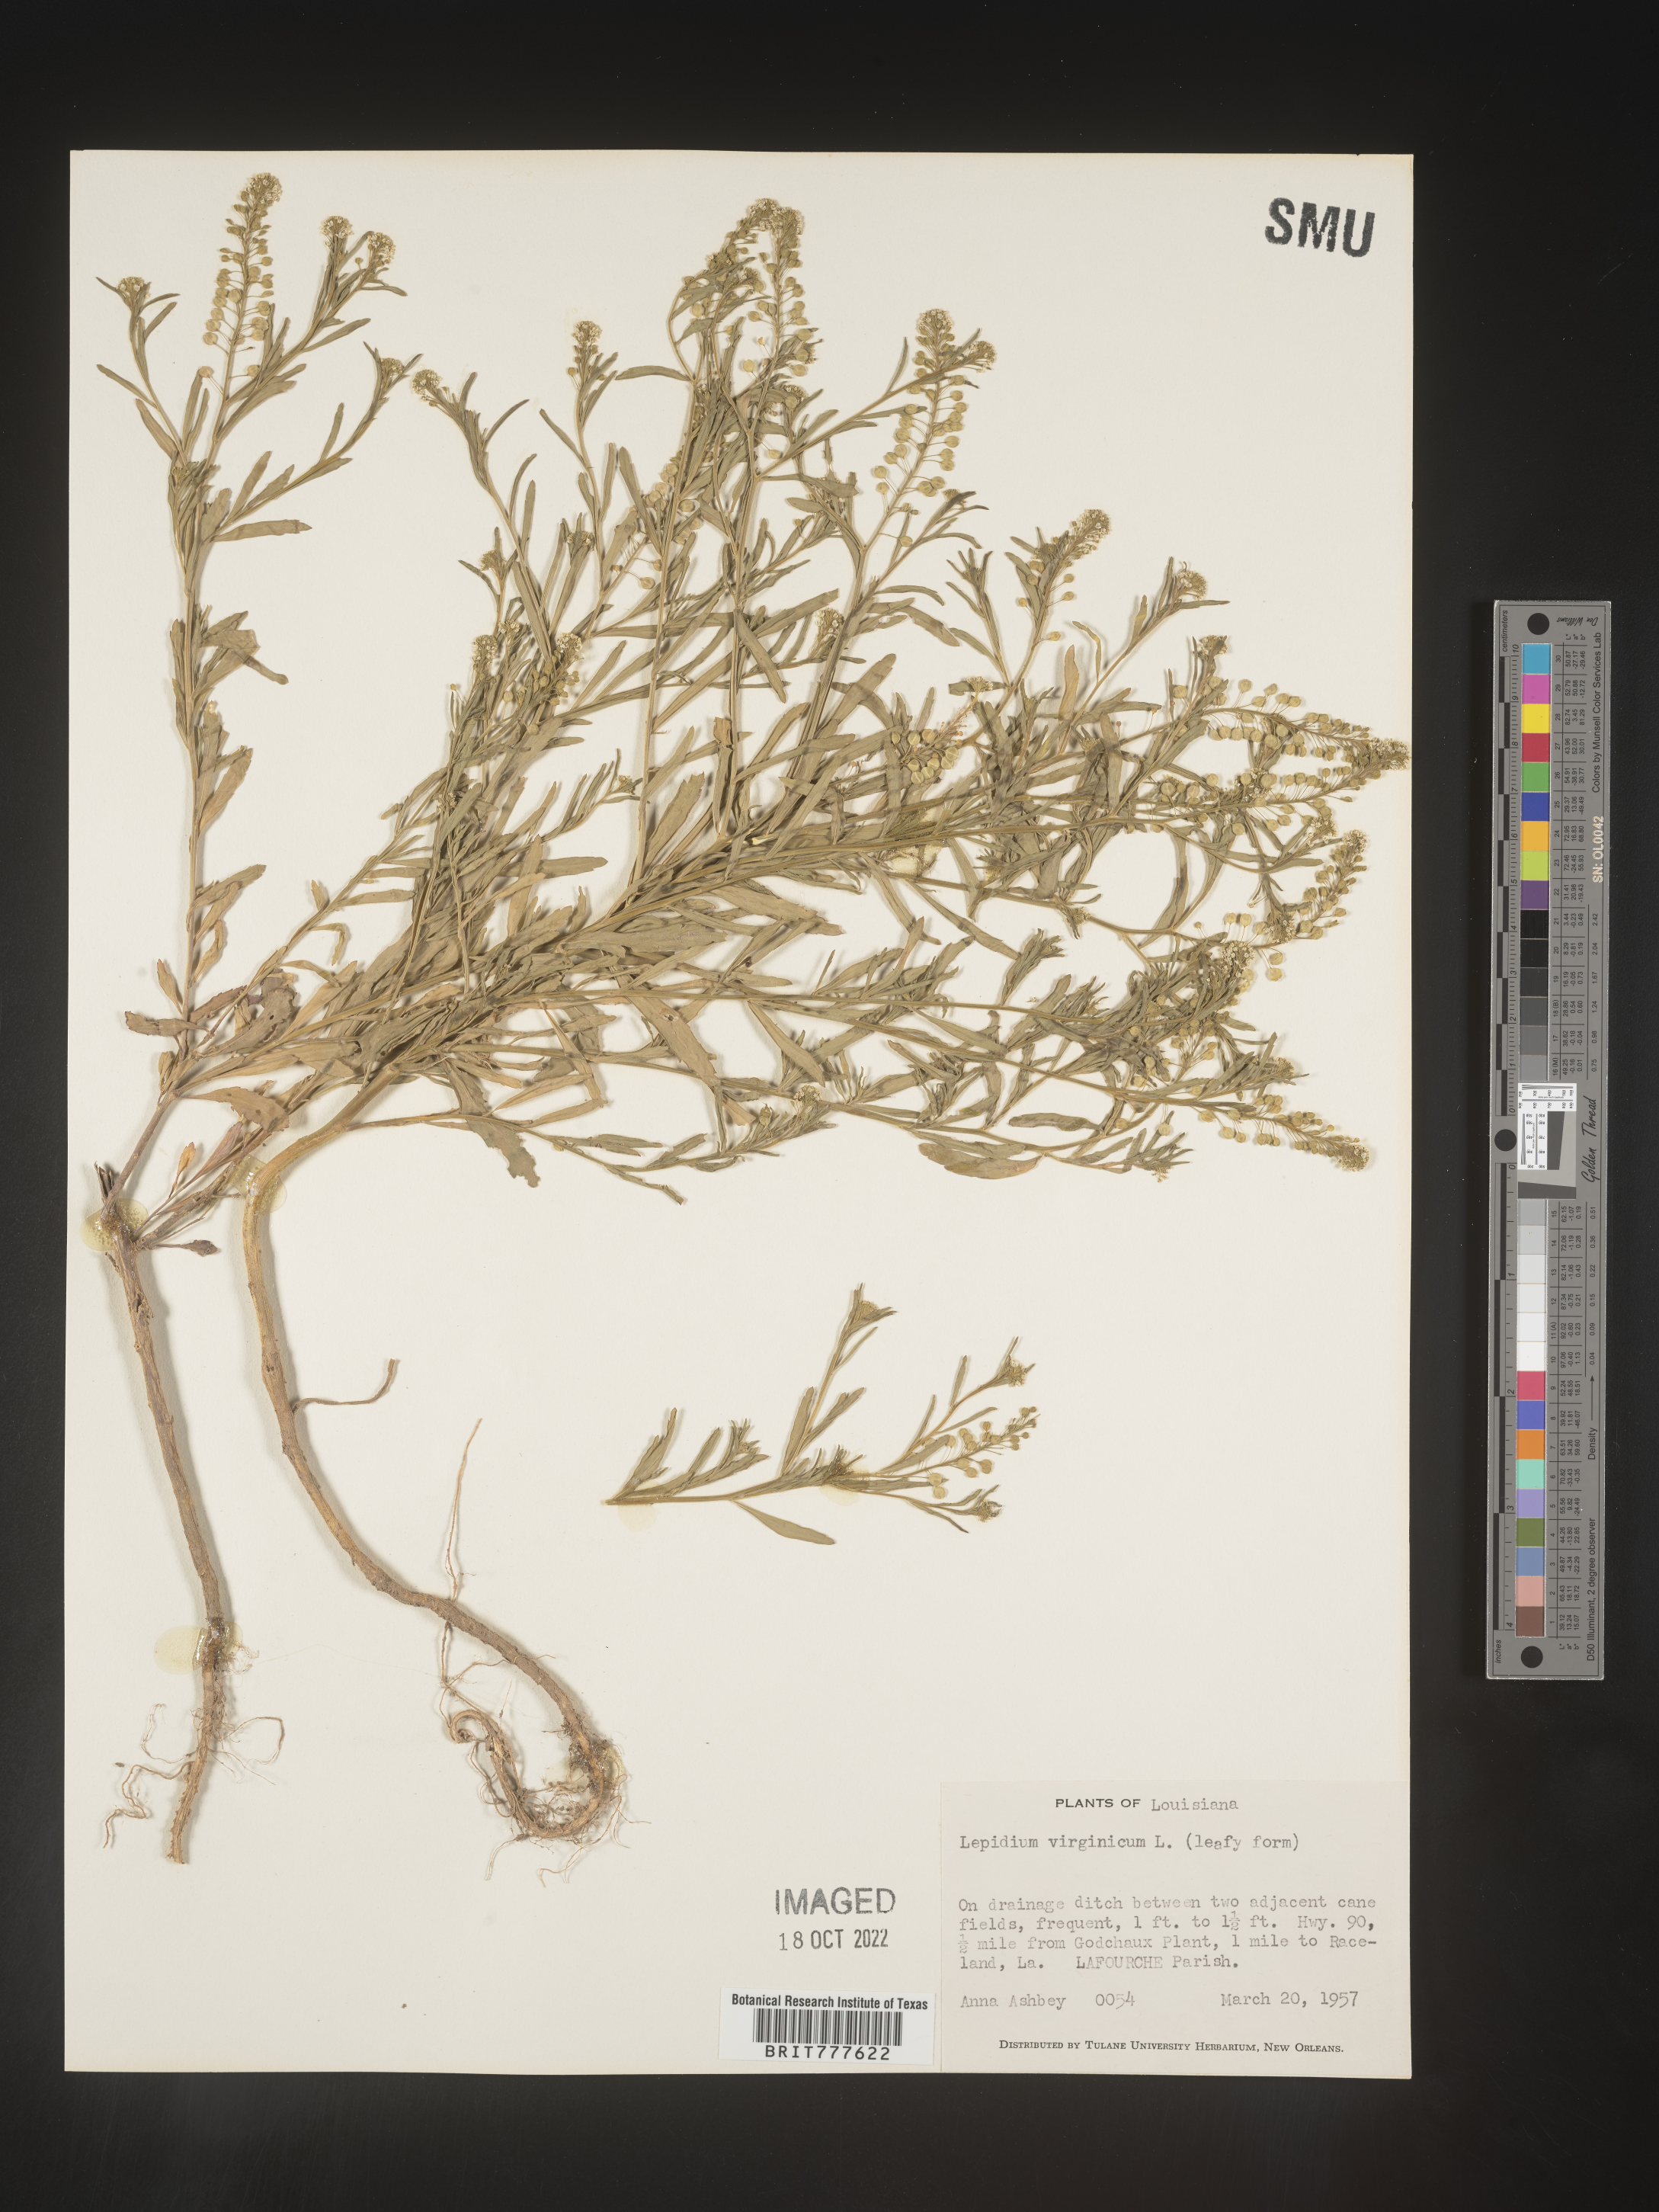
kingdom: Plantae
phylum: Tracheophyta
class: Magnoliopsida
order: Brassicales
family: Brassicaceae
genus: Lepidium
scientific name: Lepidium virginicum
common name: Least pepperwort
